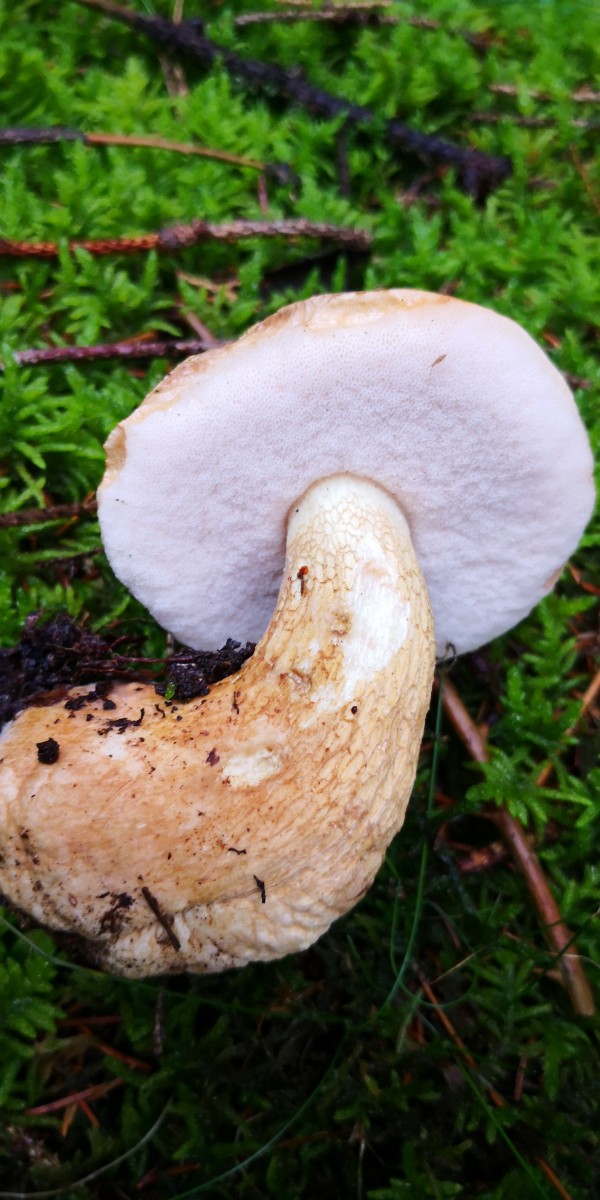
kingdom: Fungi
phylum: Basidiomycota
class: Agaricomycetes
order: Boletales
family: Boletaceae
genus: Tylopilus
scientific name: Tylopilus felleus
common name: galderørhat
